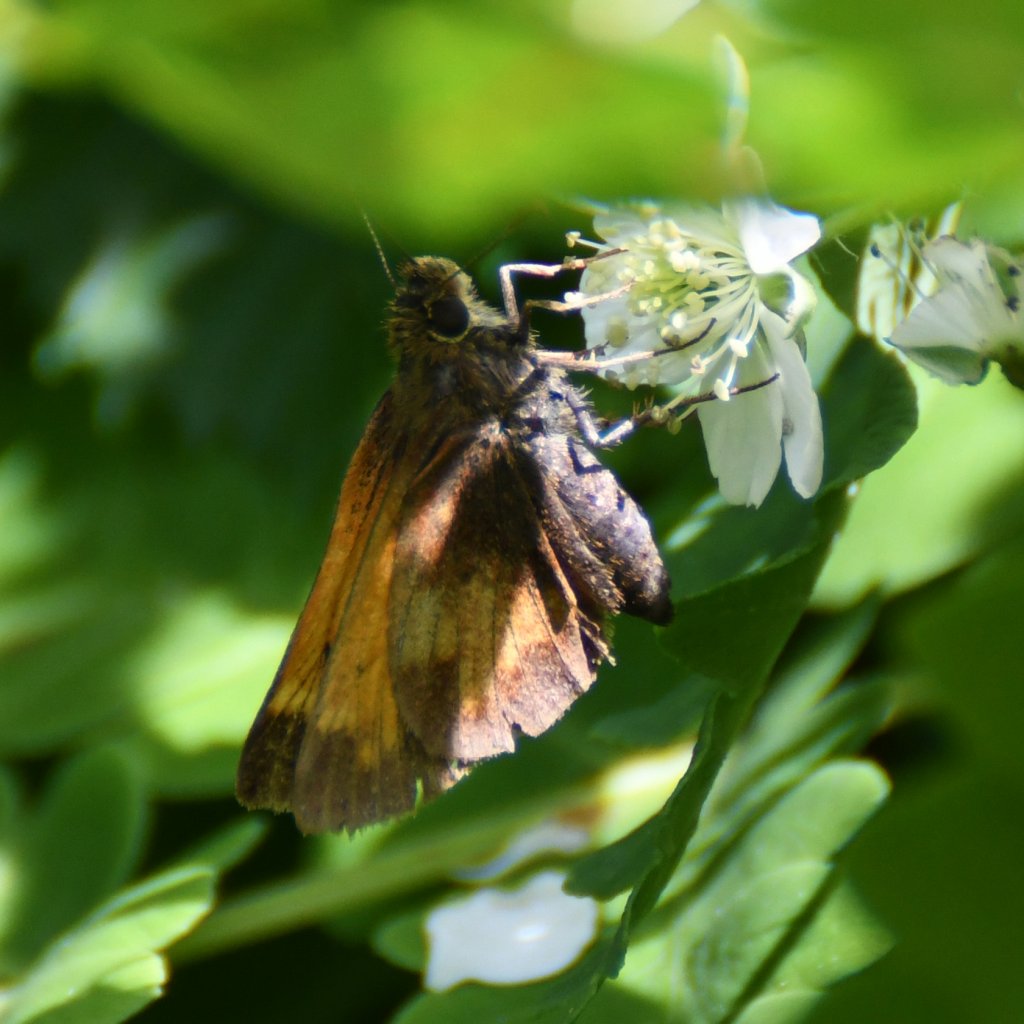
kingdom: Animalia
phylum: Arthropoda
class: Insecta
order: Lepidoptera
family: Hesperiidae
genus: Lon
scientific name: Lon hobomok
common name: Hobomok Skipper
